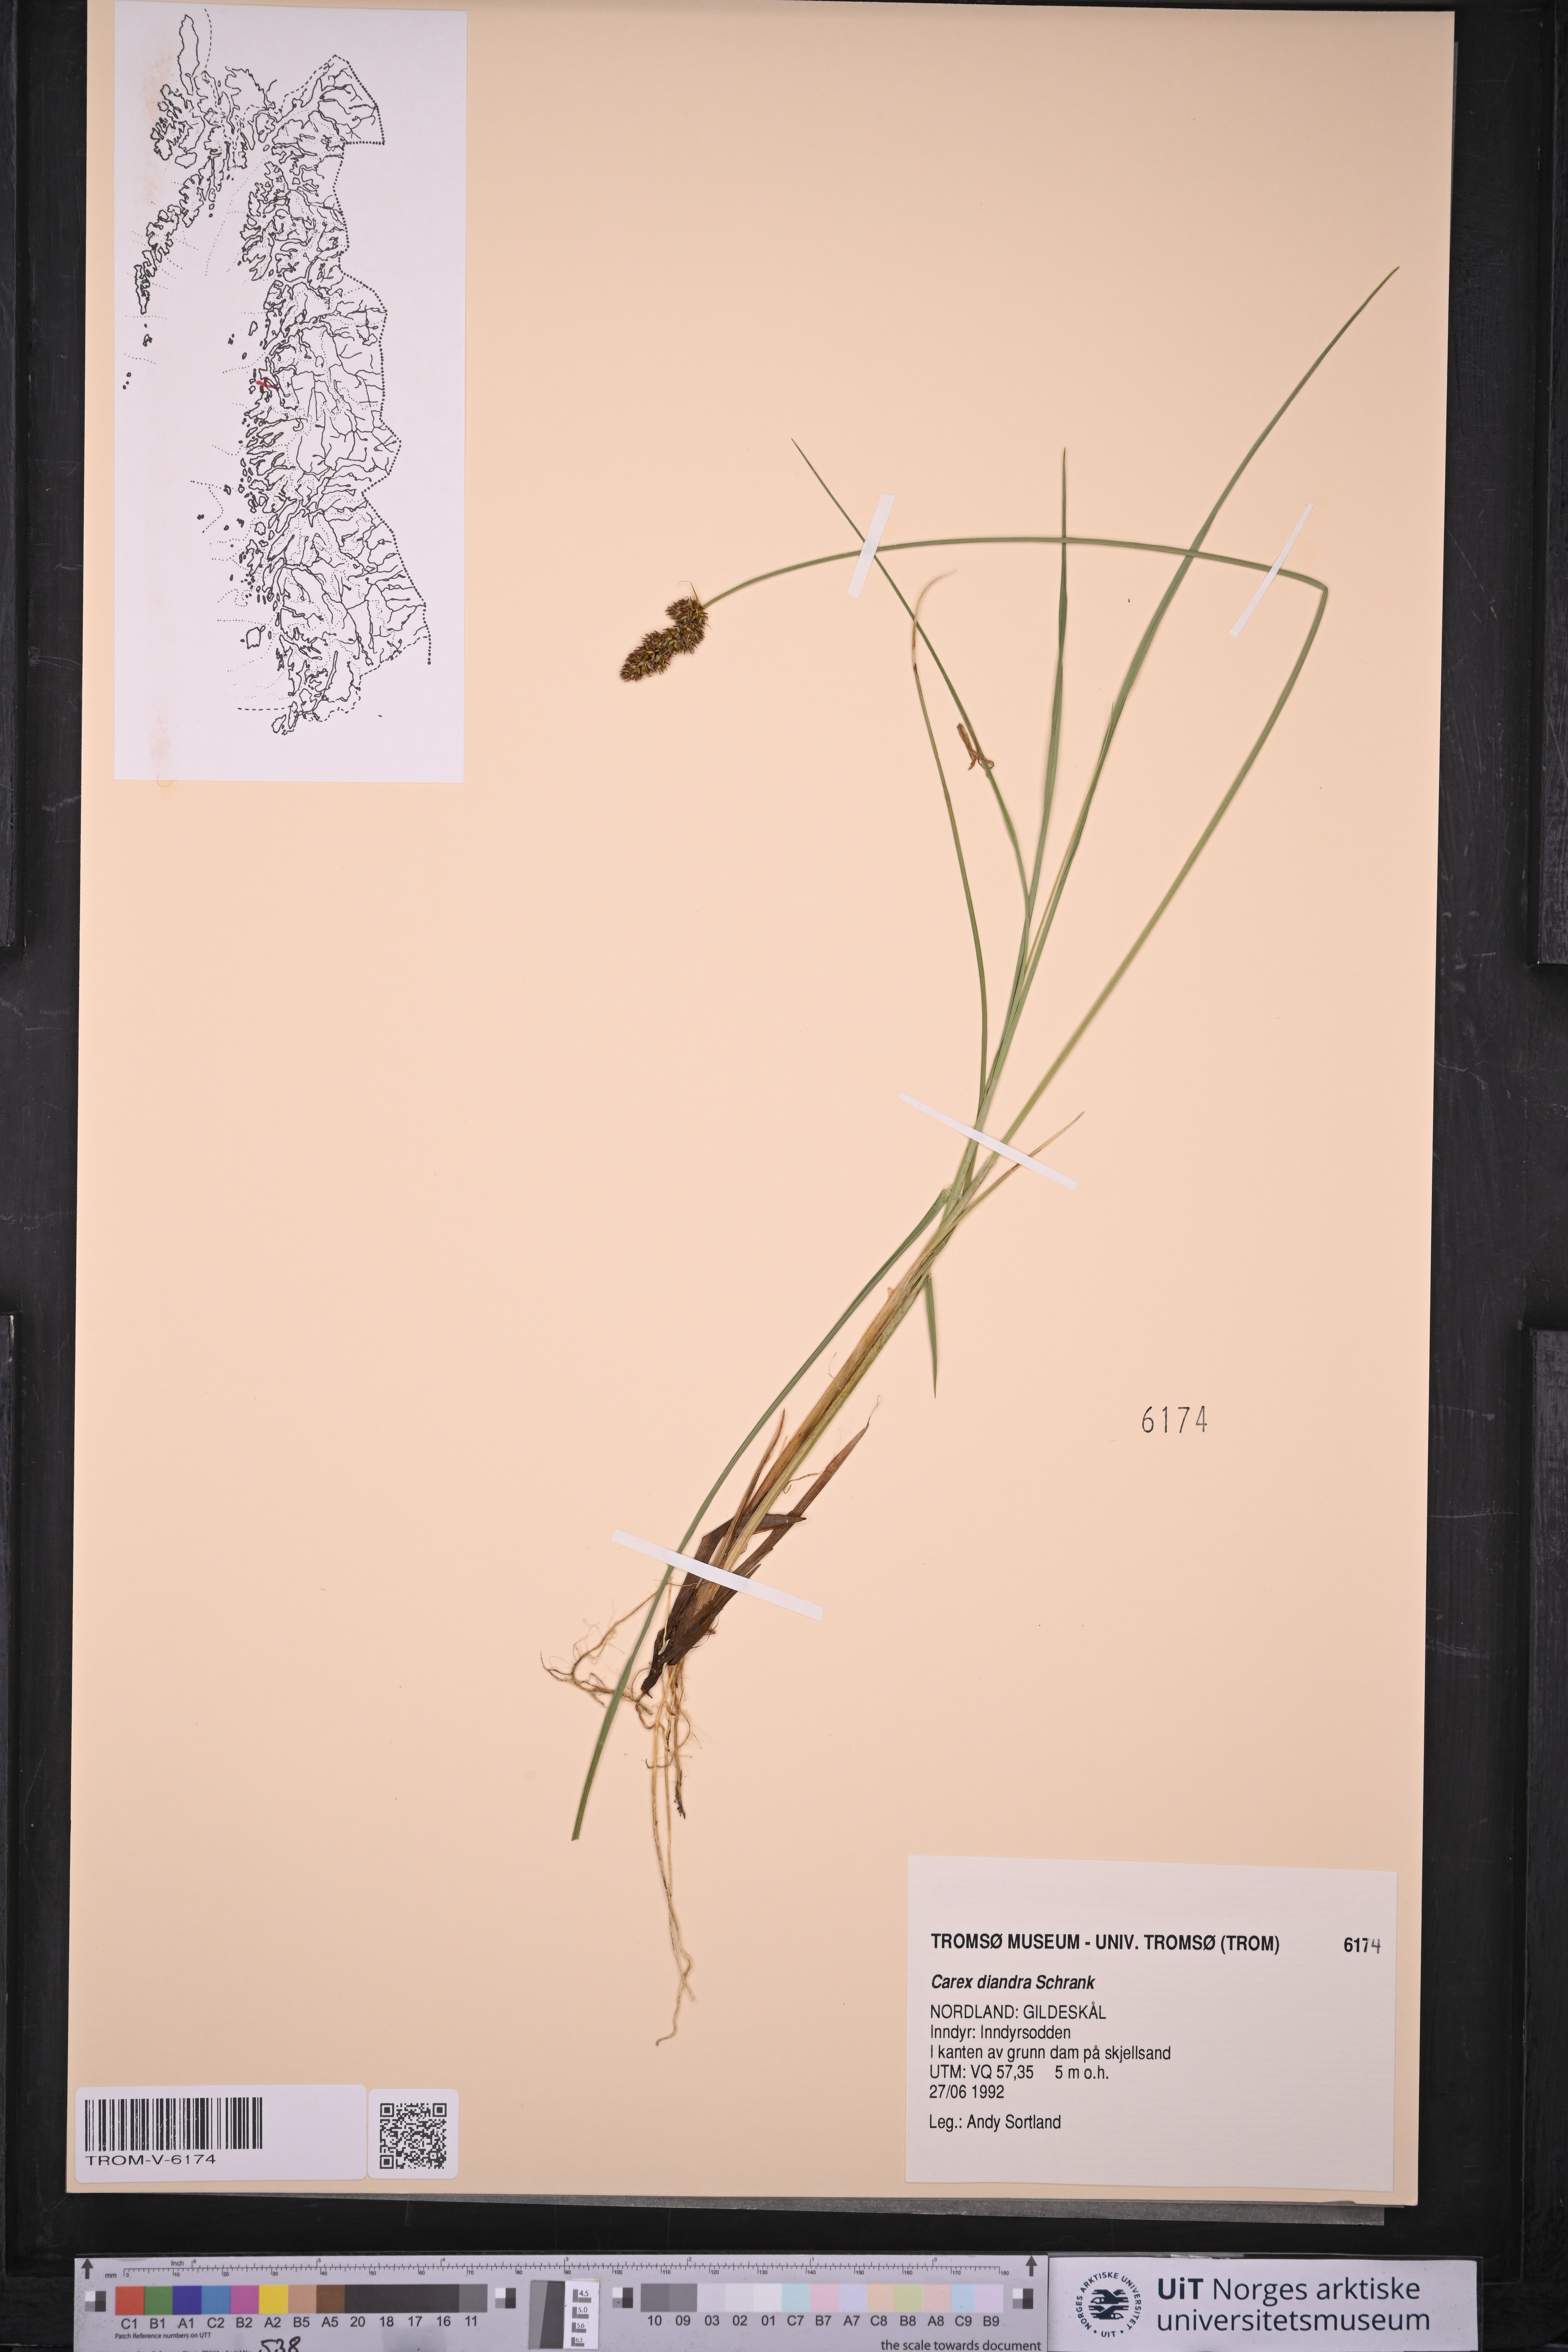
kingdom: Plantae
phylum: Tracheophyta
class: Liliopsida
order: Poales
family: Cyperaceae
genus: Carex
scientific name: Carex diandra
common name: Lesser tussock-sedge
